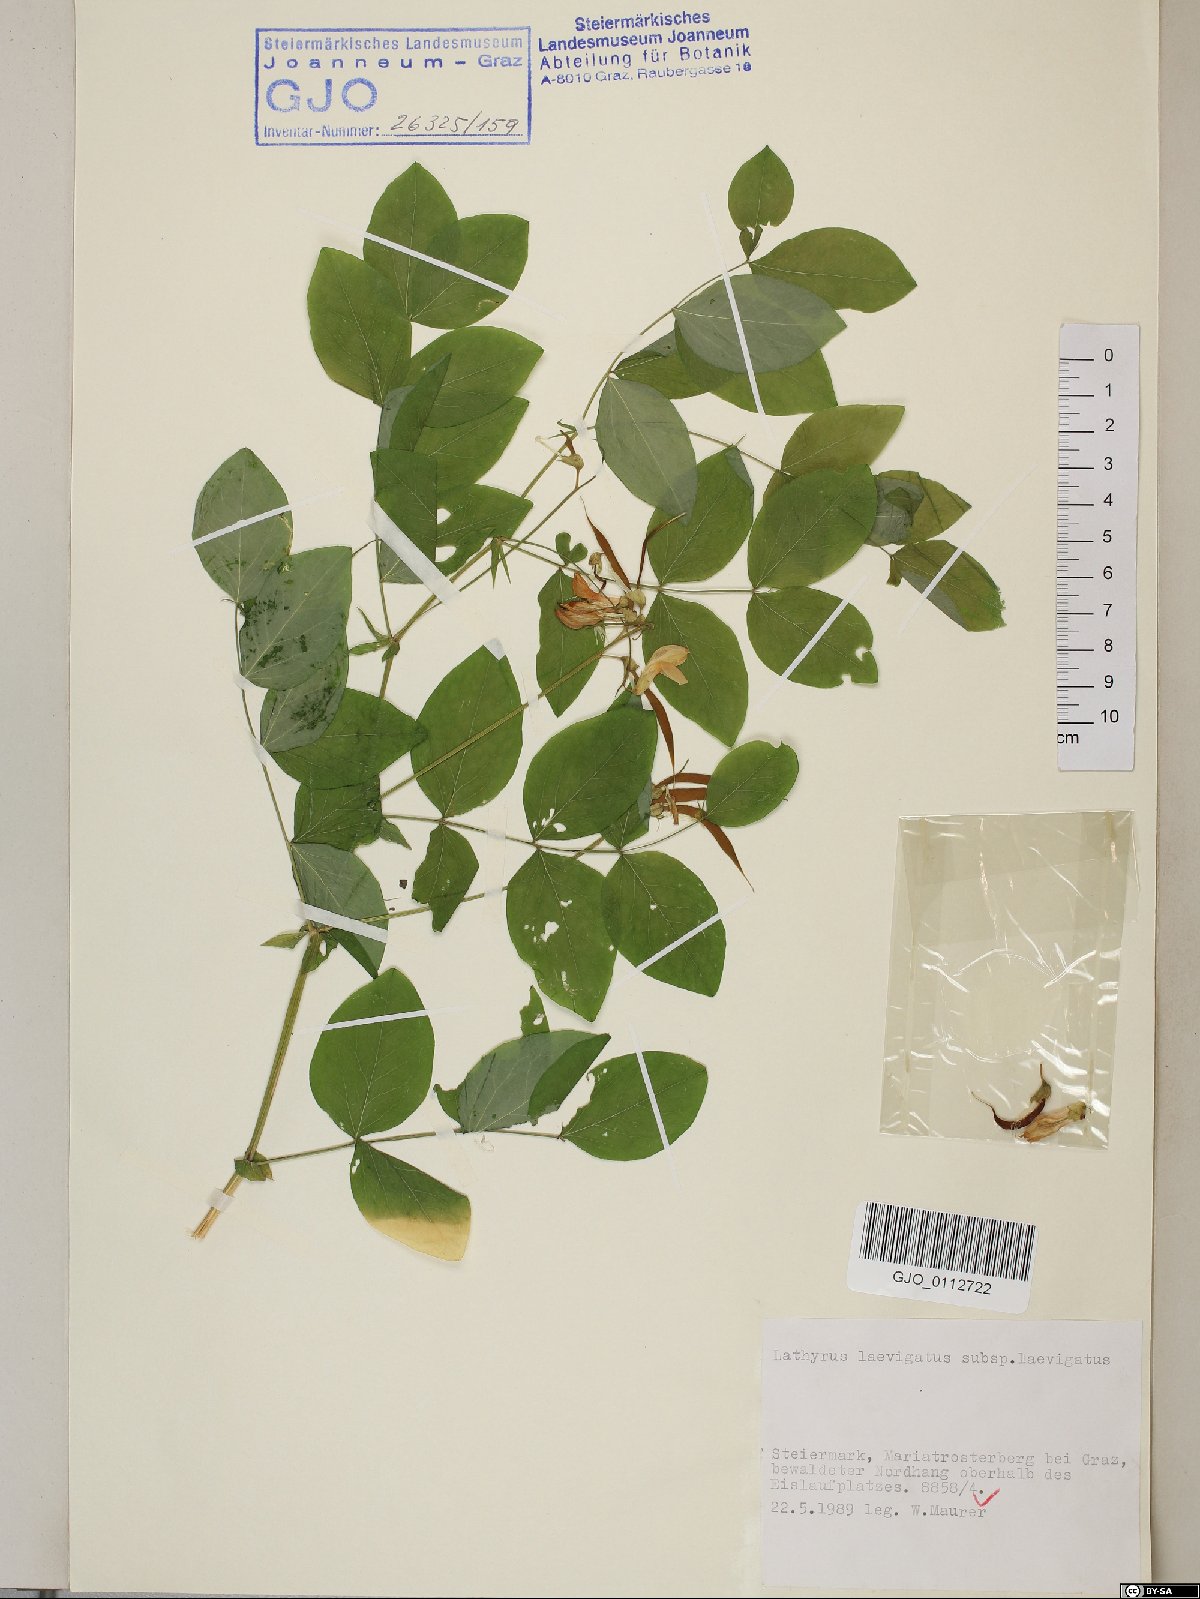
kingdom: Plantae
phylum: Tracheophyta
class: Magnoliopsida
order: Fabales
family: Fabaceae
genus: Lathyrus
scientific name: Lathyrus laevigatus
